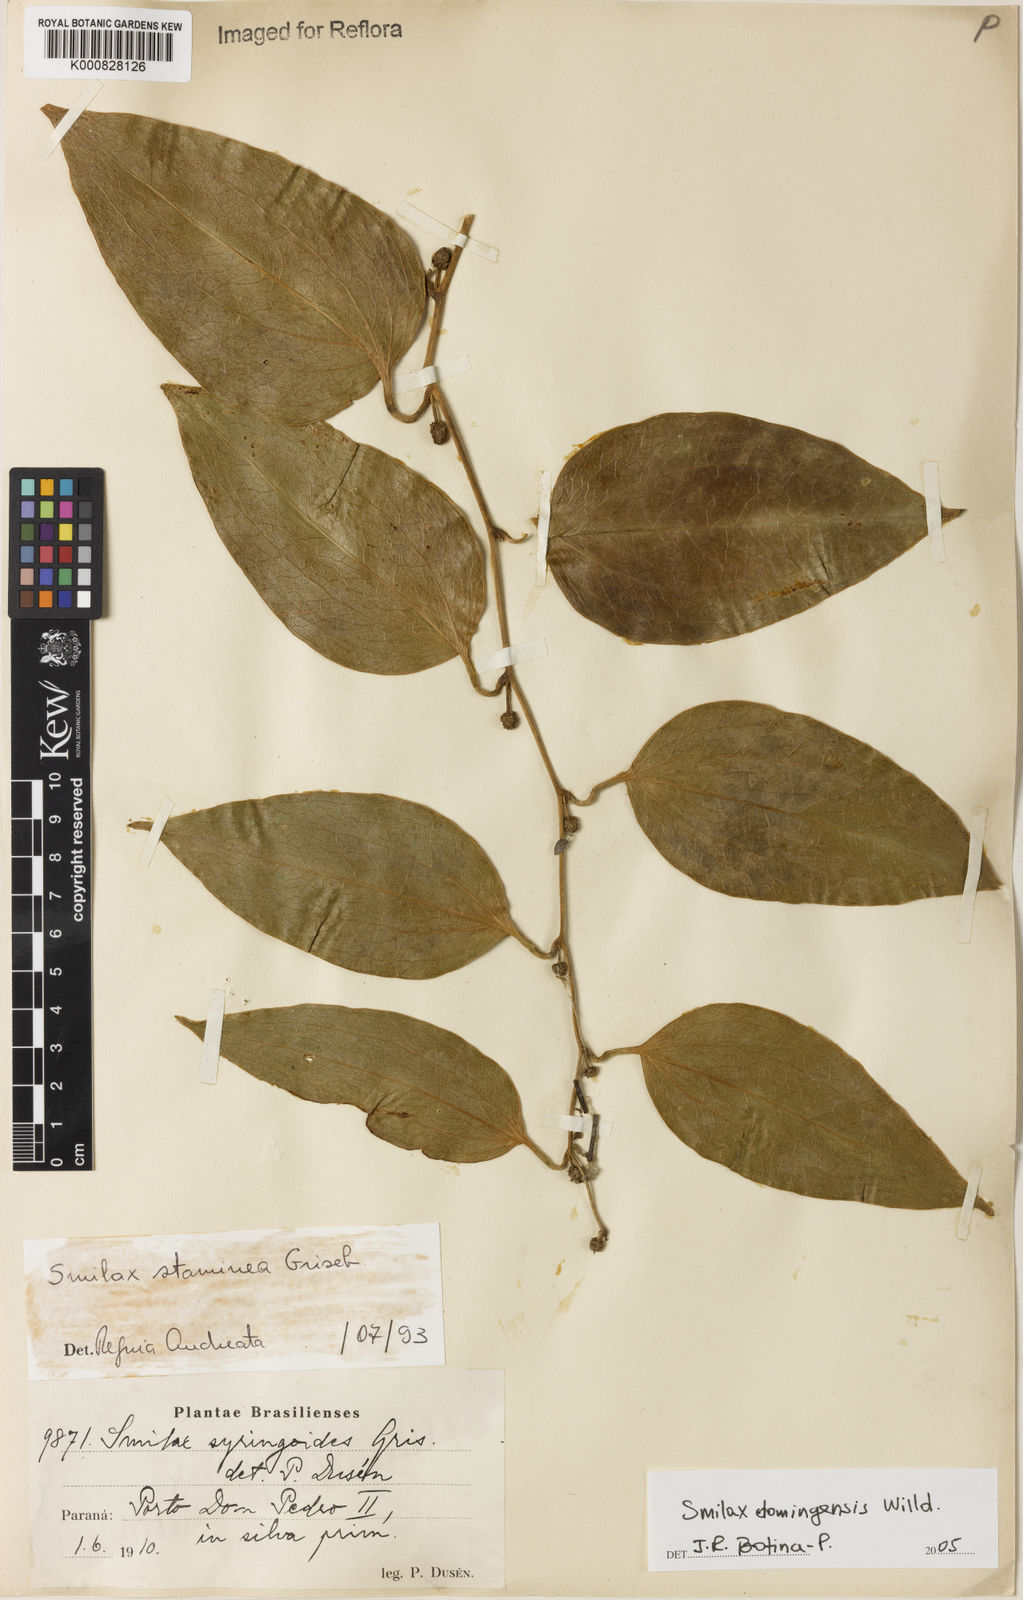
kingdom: Plantae
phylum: Tracheophyta
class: Liliopsida
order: Liliales
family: Smilacaceae
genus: Smilax
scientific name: Smilax domingensis
